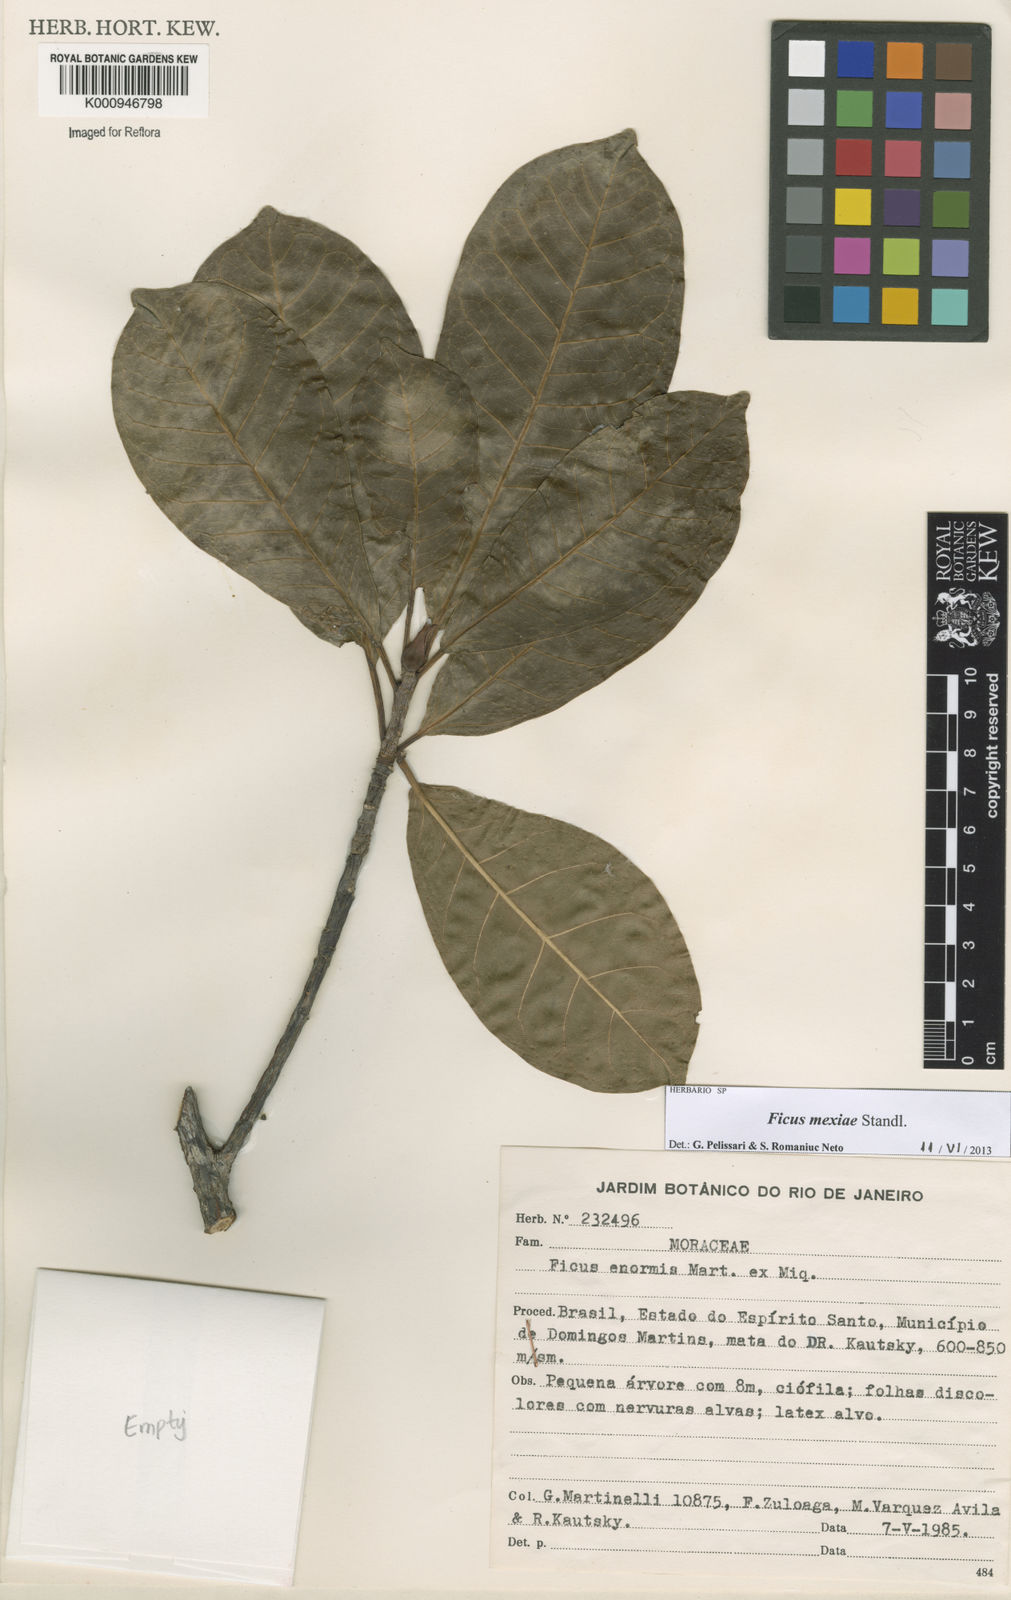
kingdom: Plantae
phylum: Tracheophyta
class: Magnoliopsida
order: Rosales
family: Moraceae
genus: Ficus
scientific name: Ficus mexiae
